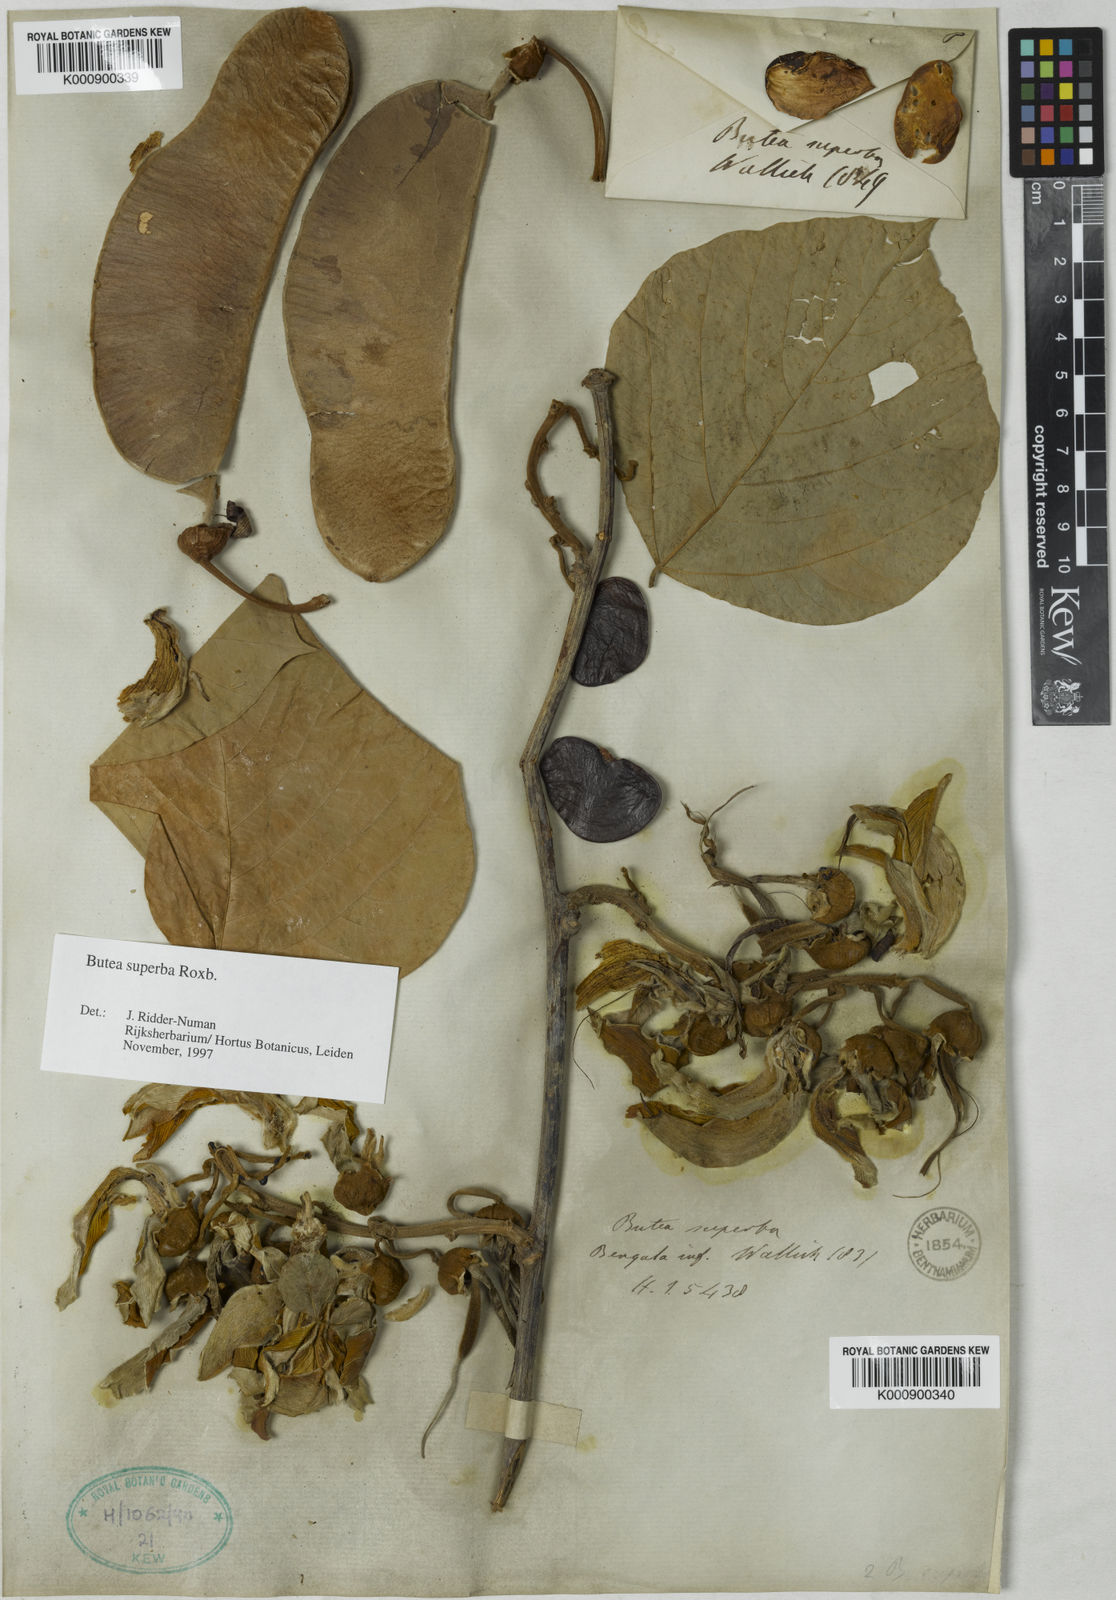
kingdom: Plantae
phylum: Tracheophyta
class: Magnoliopsida
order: Fabales
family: Fabaceae
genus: Butea
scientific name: Butea
